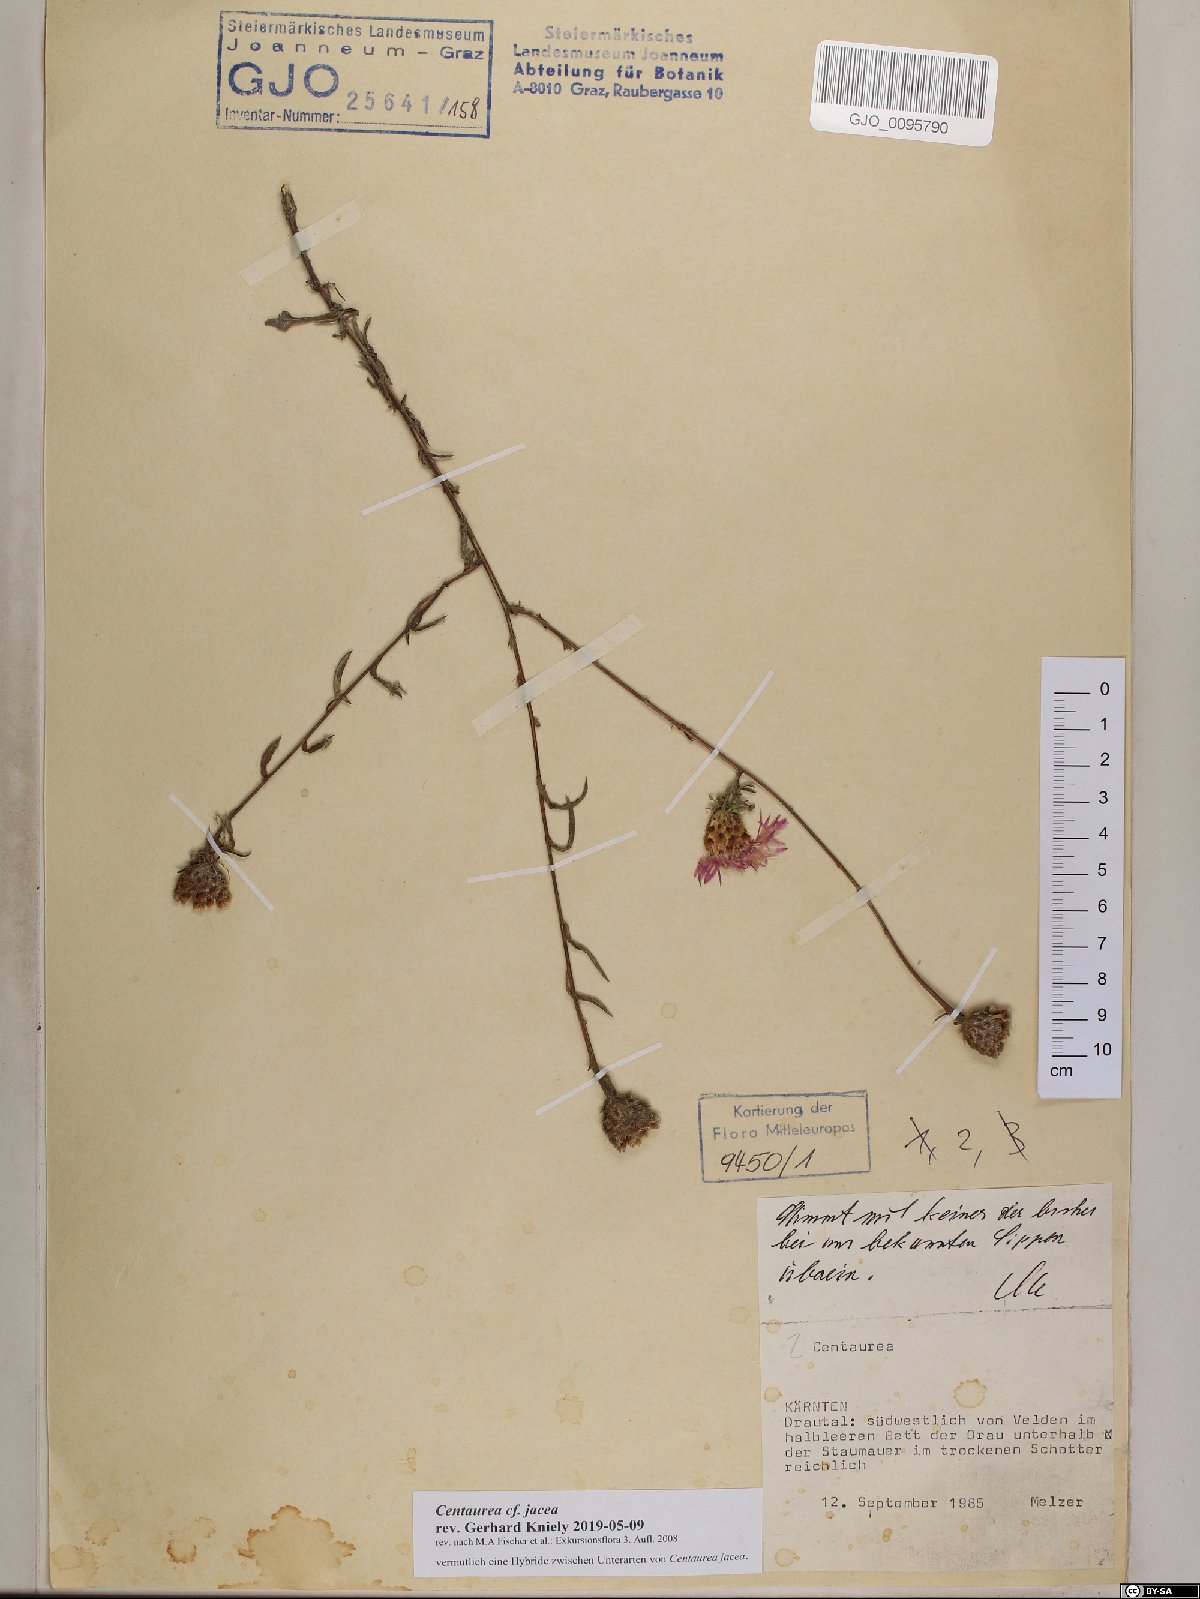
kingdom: Plantae
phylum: Tracheophyta
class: Magnoliopsida
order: Asterales
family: Asteraceae
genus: Centaurea
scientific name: Centaurea jacea
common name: Brown knapweed
